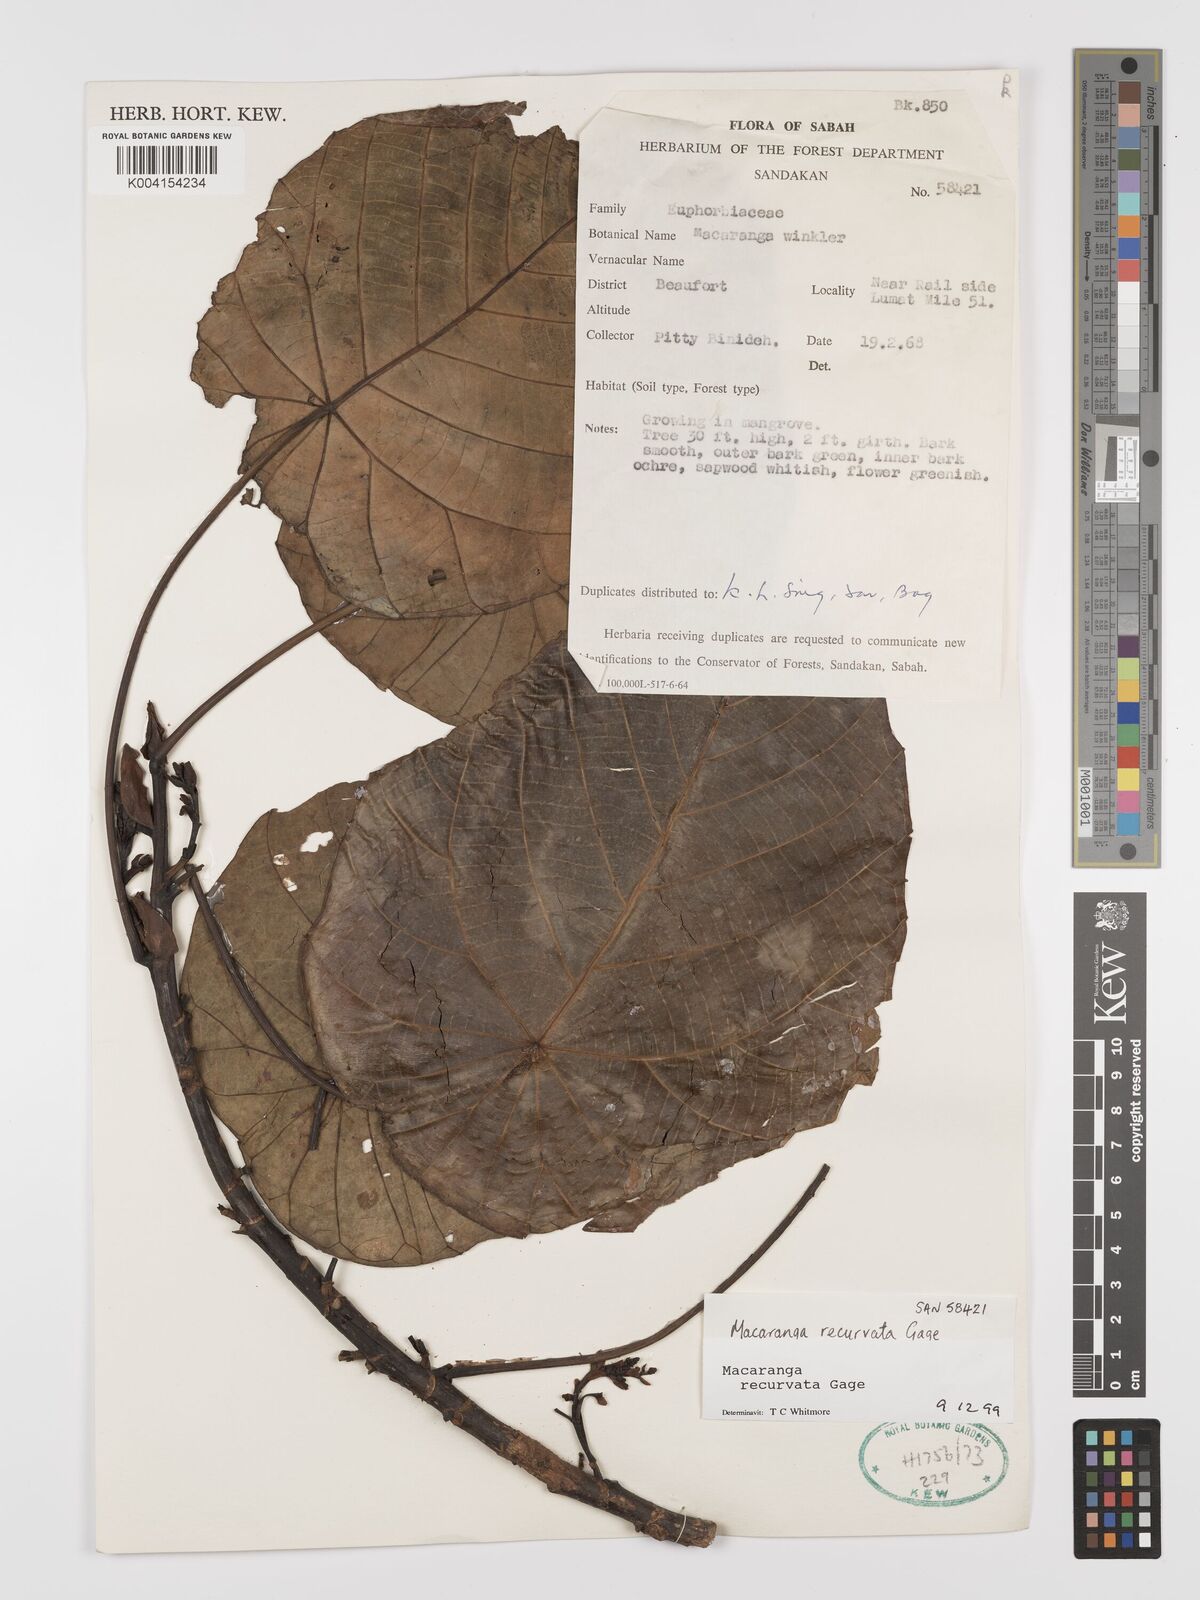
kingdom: Plantae
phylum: Tracheophyta
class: Magnoliopsida
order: Malpighiales
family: Euphorbiaceae
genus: Macaranga
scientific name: Macaranga recurvata
